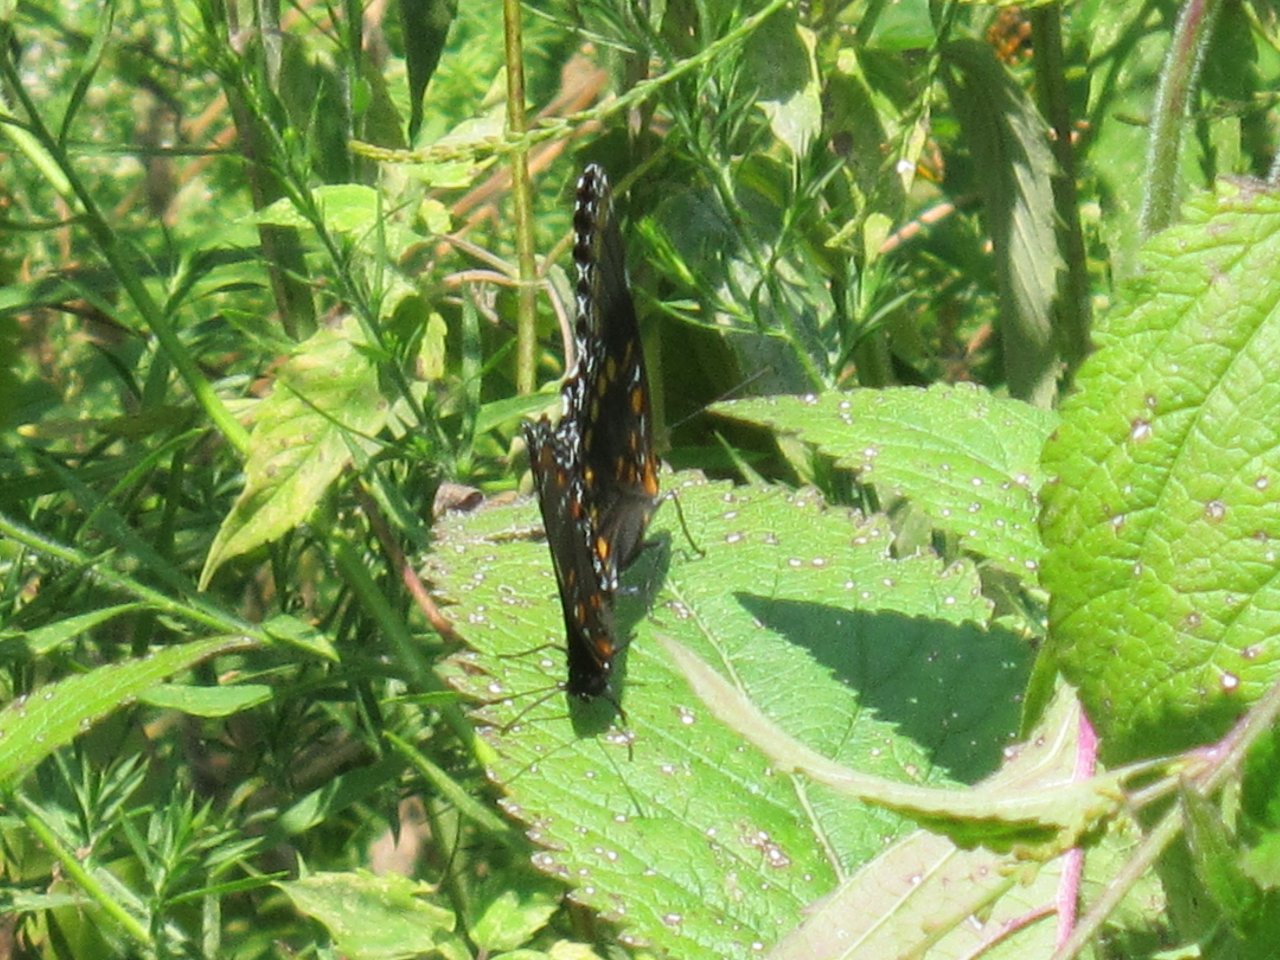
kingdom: Animalia
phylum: Arthropoda
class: Insecta
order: Lepidoptera
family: Nymphalidae
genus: Limenitis
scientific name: Limenitis astyanax
